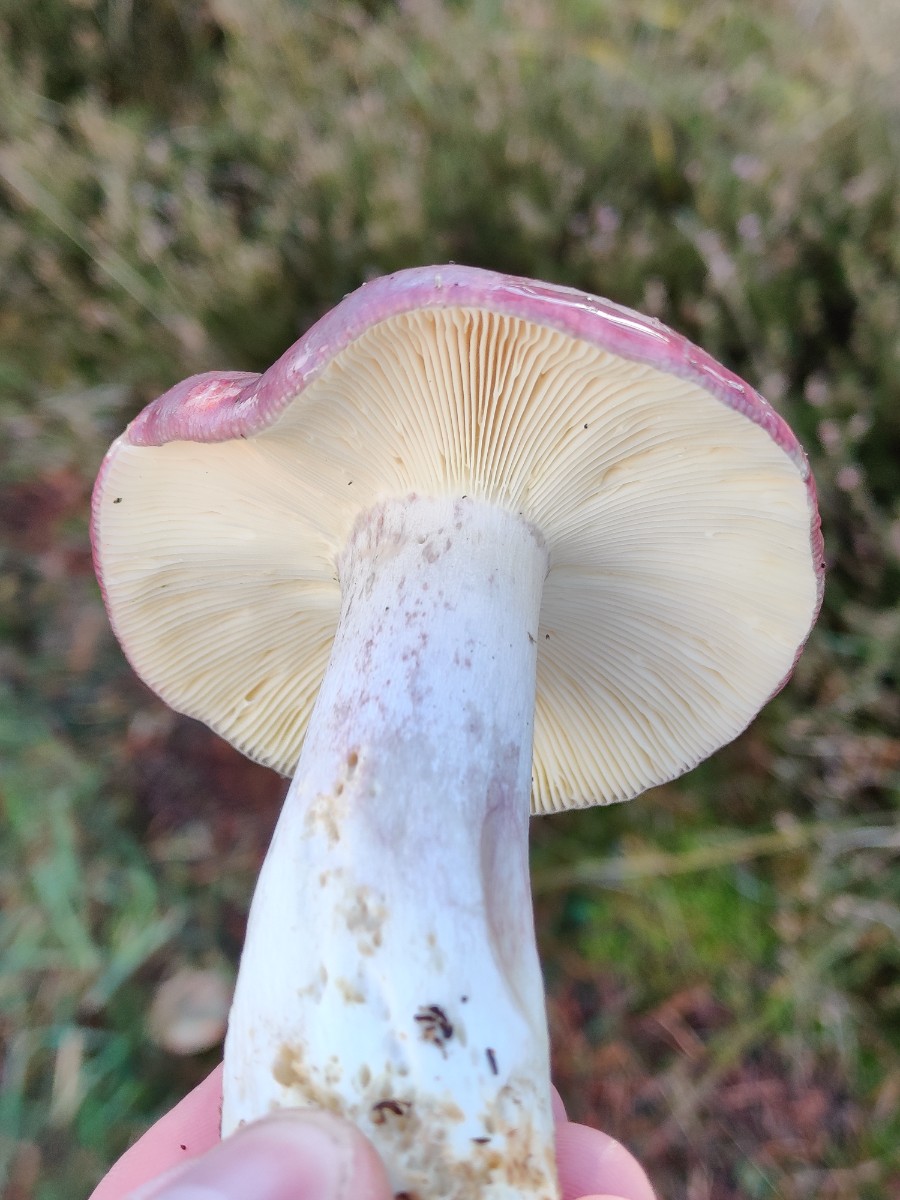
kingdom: Fungi
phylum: Basidiomycota
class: Agaricomycetes
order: Russulales
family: Russulaceae
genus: Russula
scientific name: Russula sardonia
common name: citronbladet skørhat
